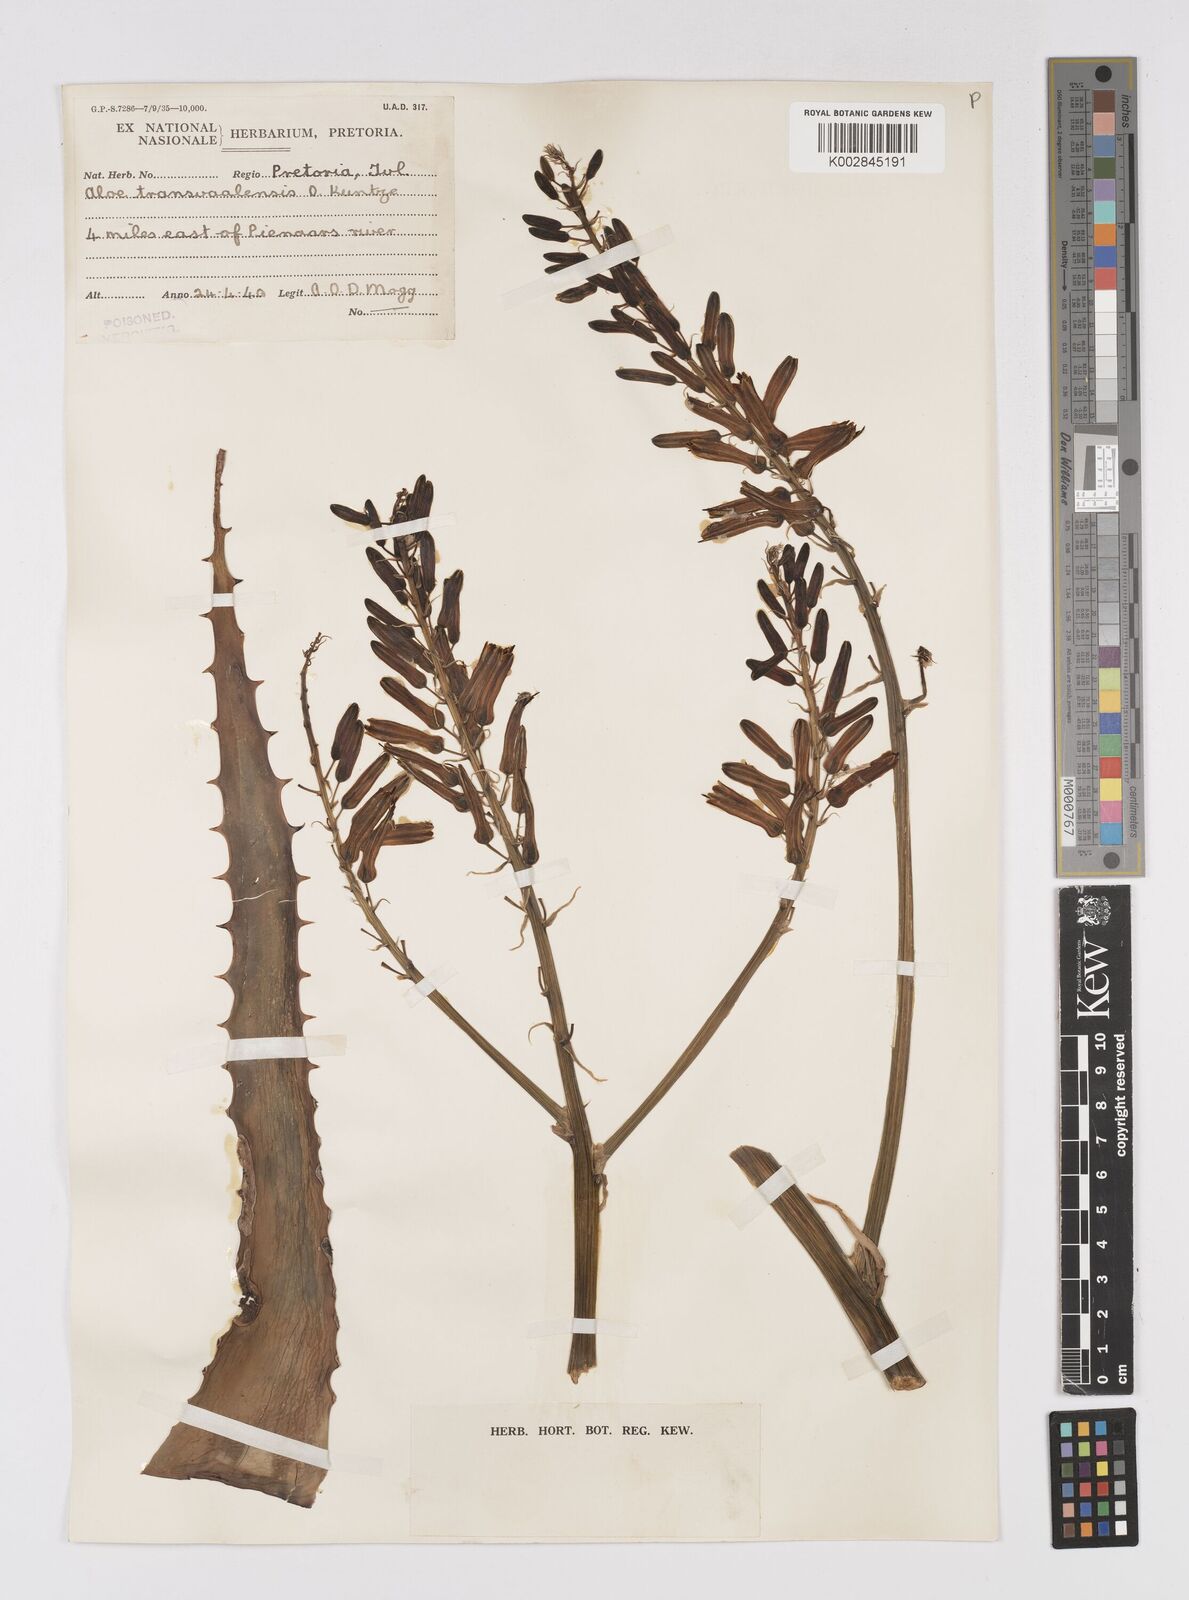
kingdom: Plantae
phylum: Tracheophyta
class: Liliopsida
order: Asparagales
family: Asphodelaceae
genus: Aloe
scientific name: Aloe transvaalensis
